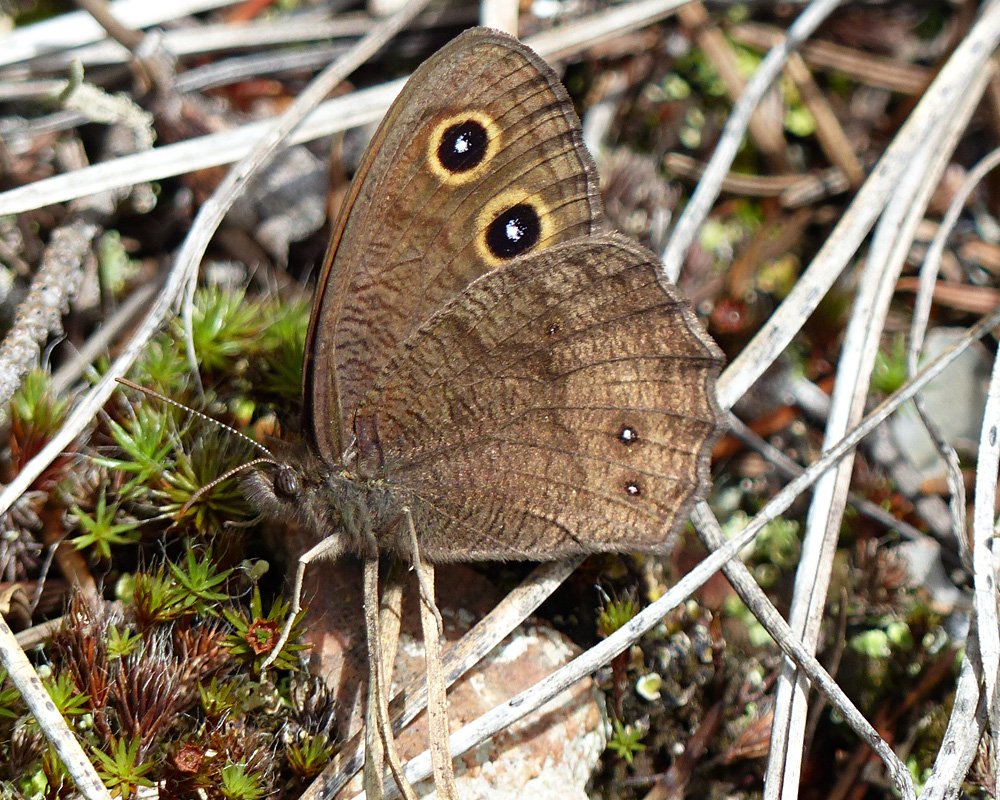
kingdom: Animalia
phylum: Arthropoda
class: Insecta
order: Lepidoptera
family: Nymphalidae
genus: Cercyonis
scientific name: Cercyonis pegala
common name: Common Wood-Nymph
